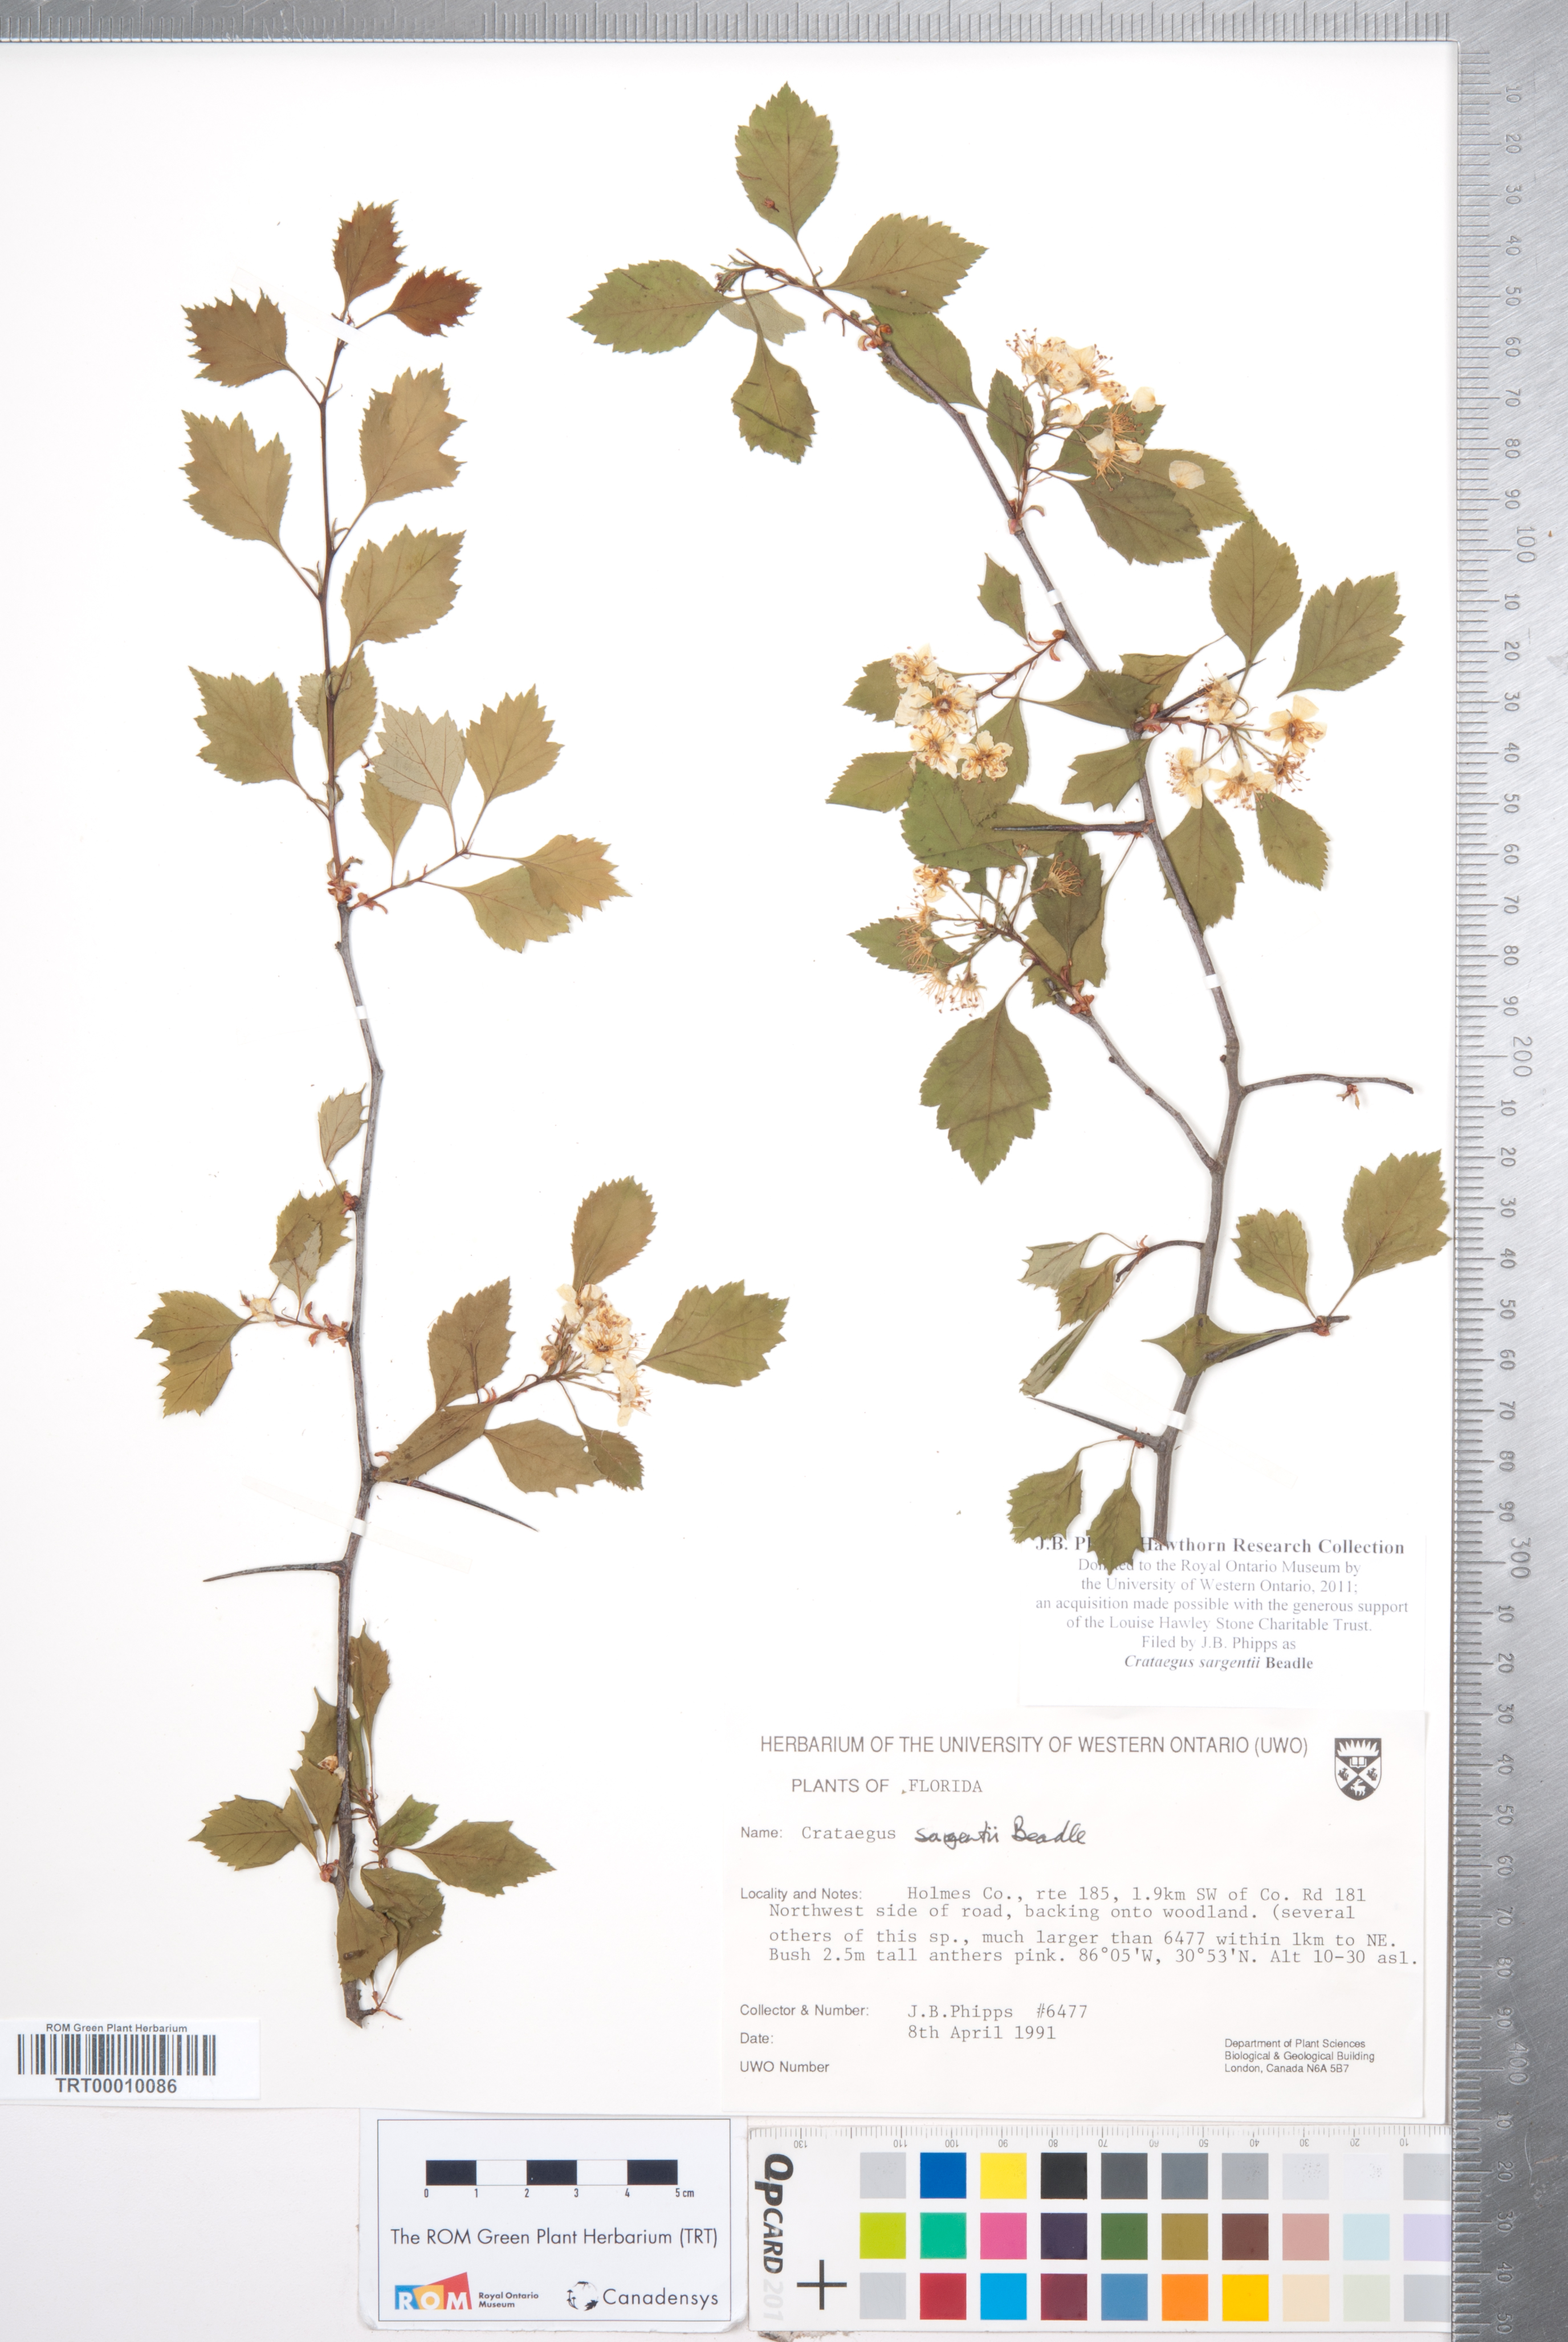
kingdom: Plantae
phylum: Tracheophyta
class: Magnoliopsida
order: Rosales
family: Rosaceae
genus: Crataegus
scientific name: Crataegus sargentii
